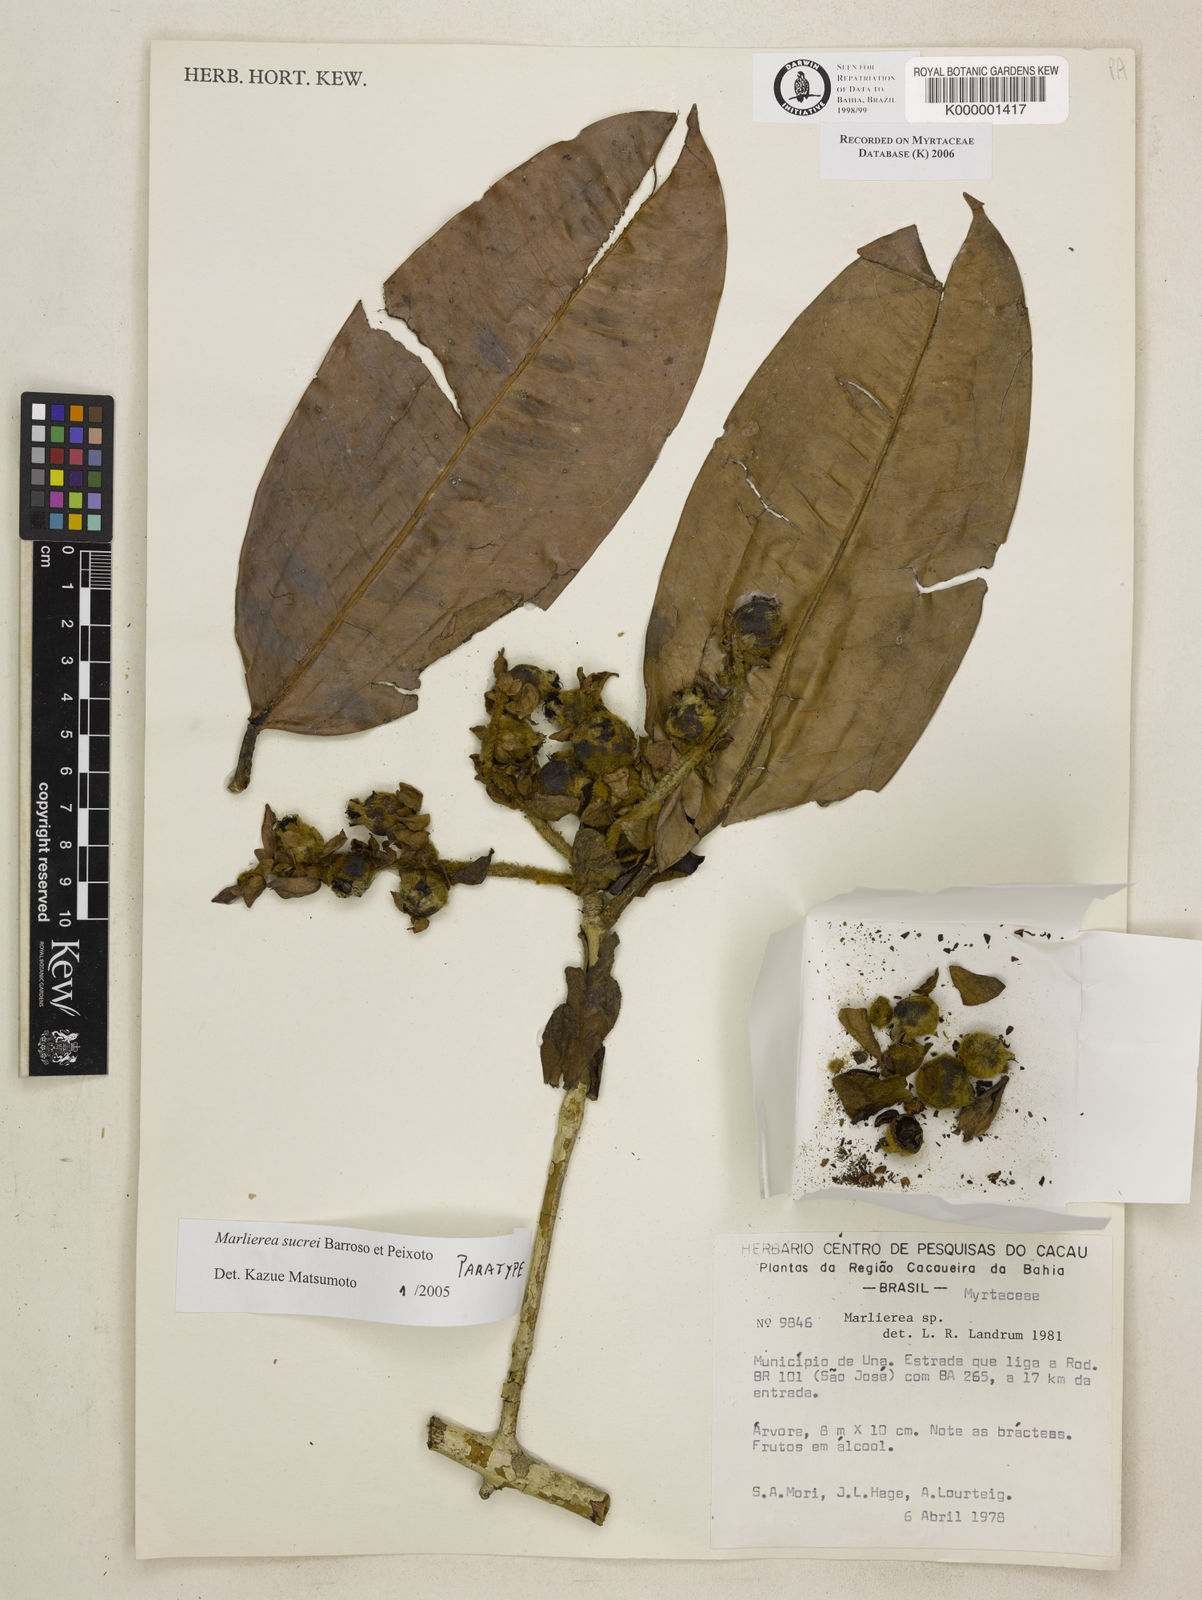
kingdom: Plantae
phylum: Tracheophyta
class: Magnoliopsida
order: Myrtales
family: Myrtaceae
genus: Myrcia
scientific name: Myrcia sucrei
